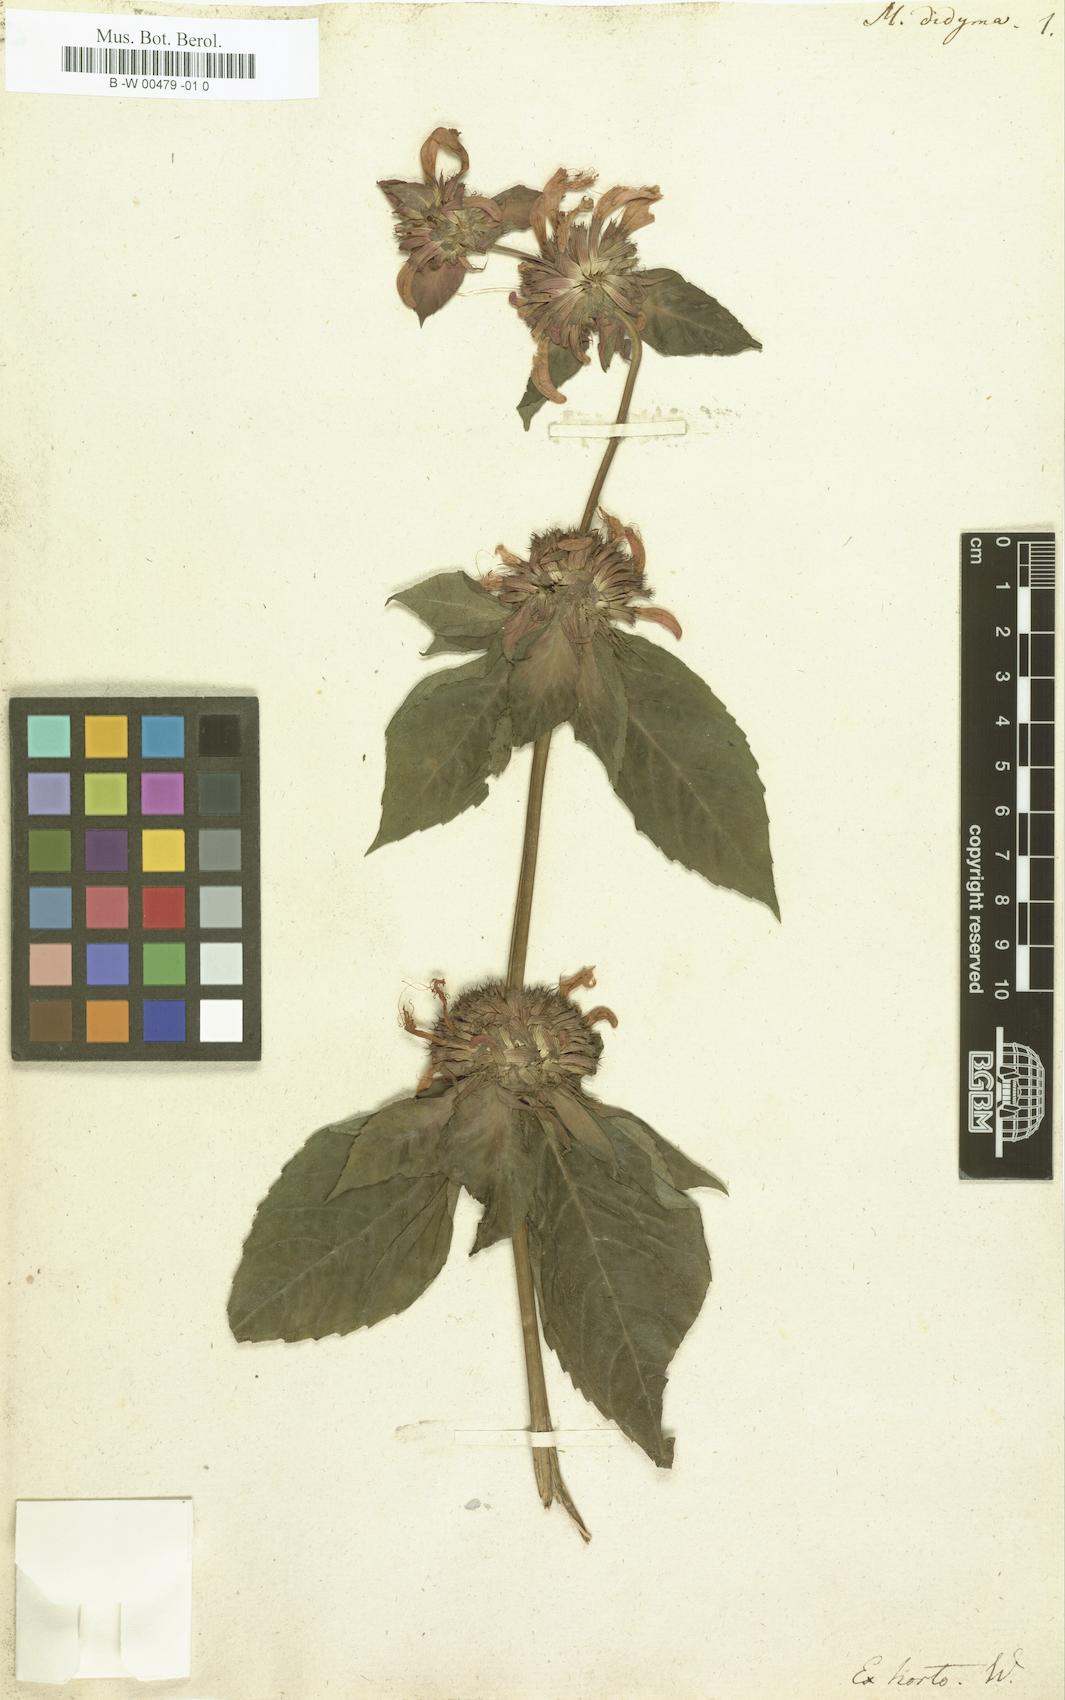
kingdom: Plantae
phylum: Tracheophyta
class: Magnoliopsida
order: Lamiales
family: Lamiaceae
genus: Monarda
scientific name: Monarda didyma
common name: Beebalm
